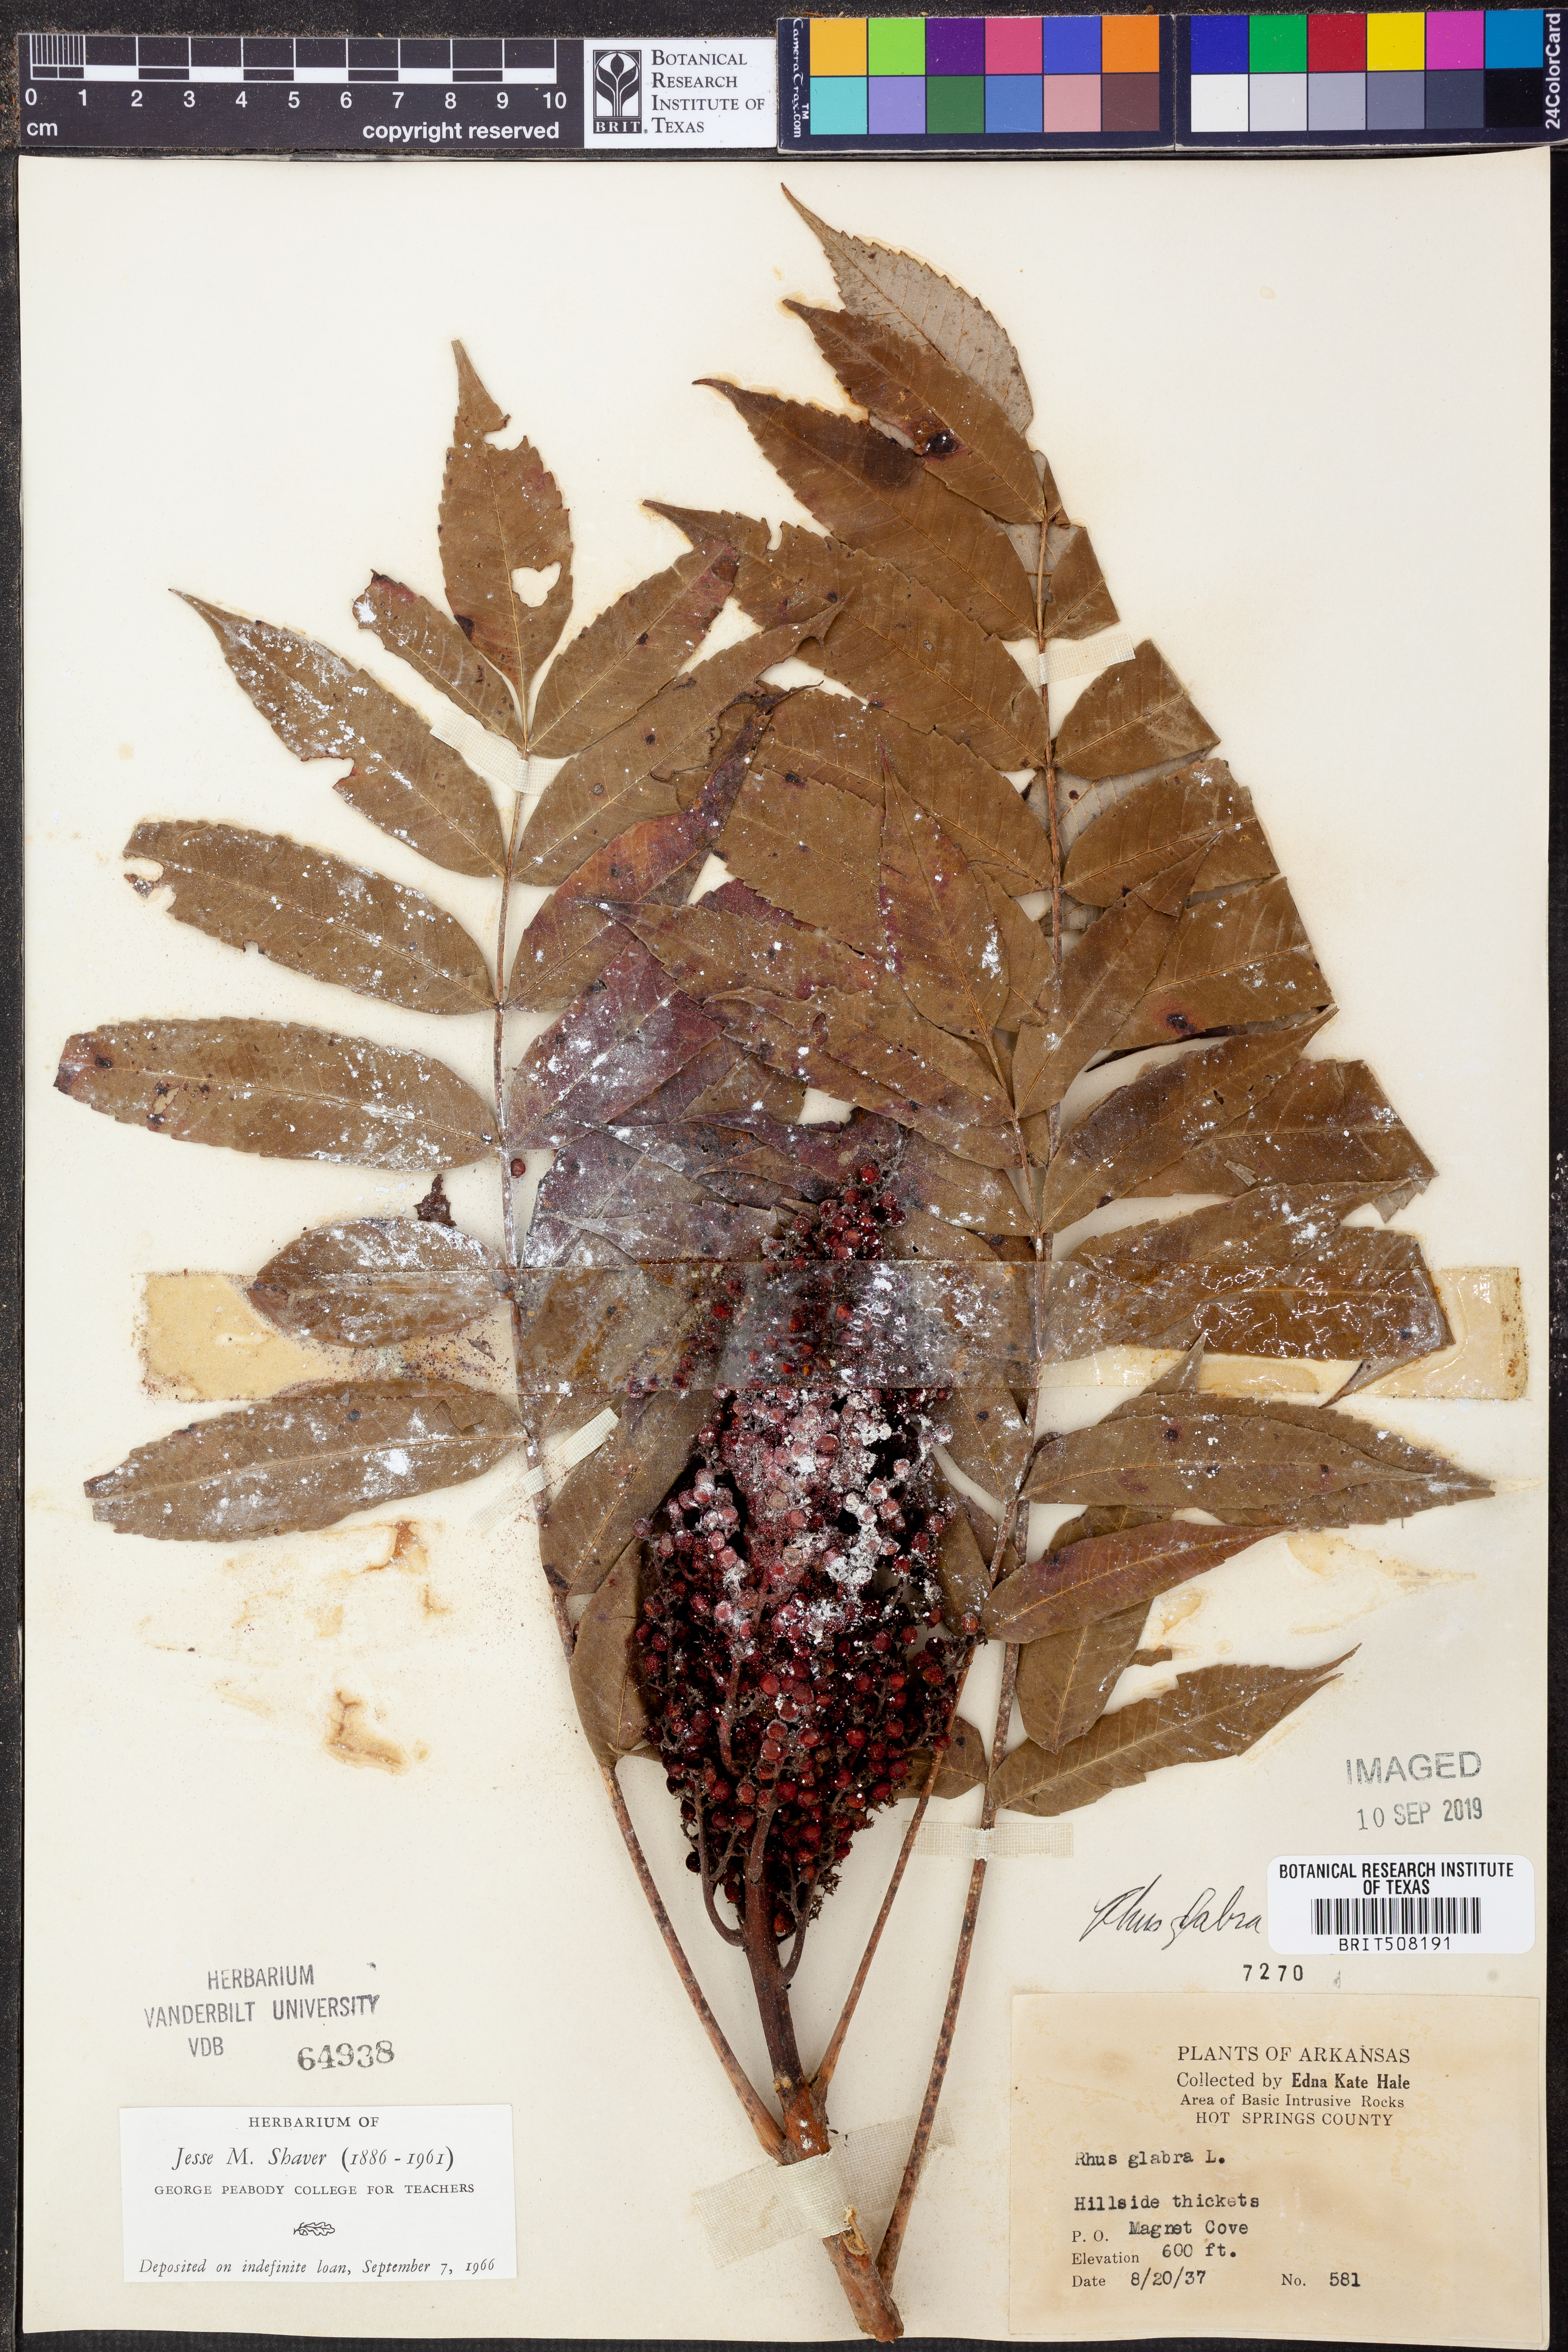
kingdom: Plantae
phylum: Tracheophyta
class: Magnoliopsida
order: Sapindales
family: Anacardiaceae
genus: Rhus
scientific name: Rhus glabra
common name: Scarlet sumac
